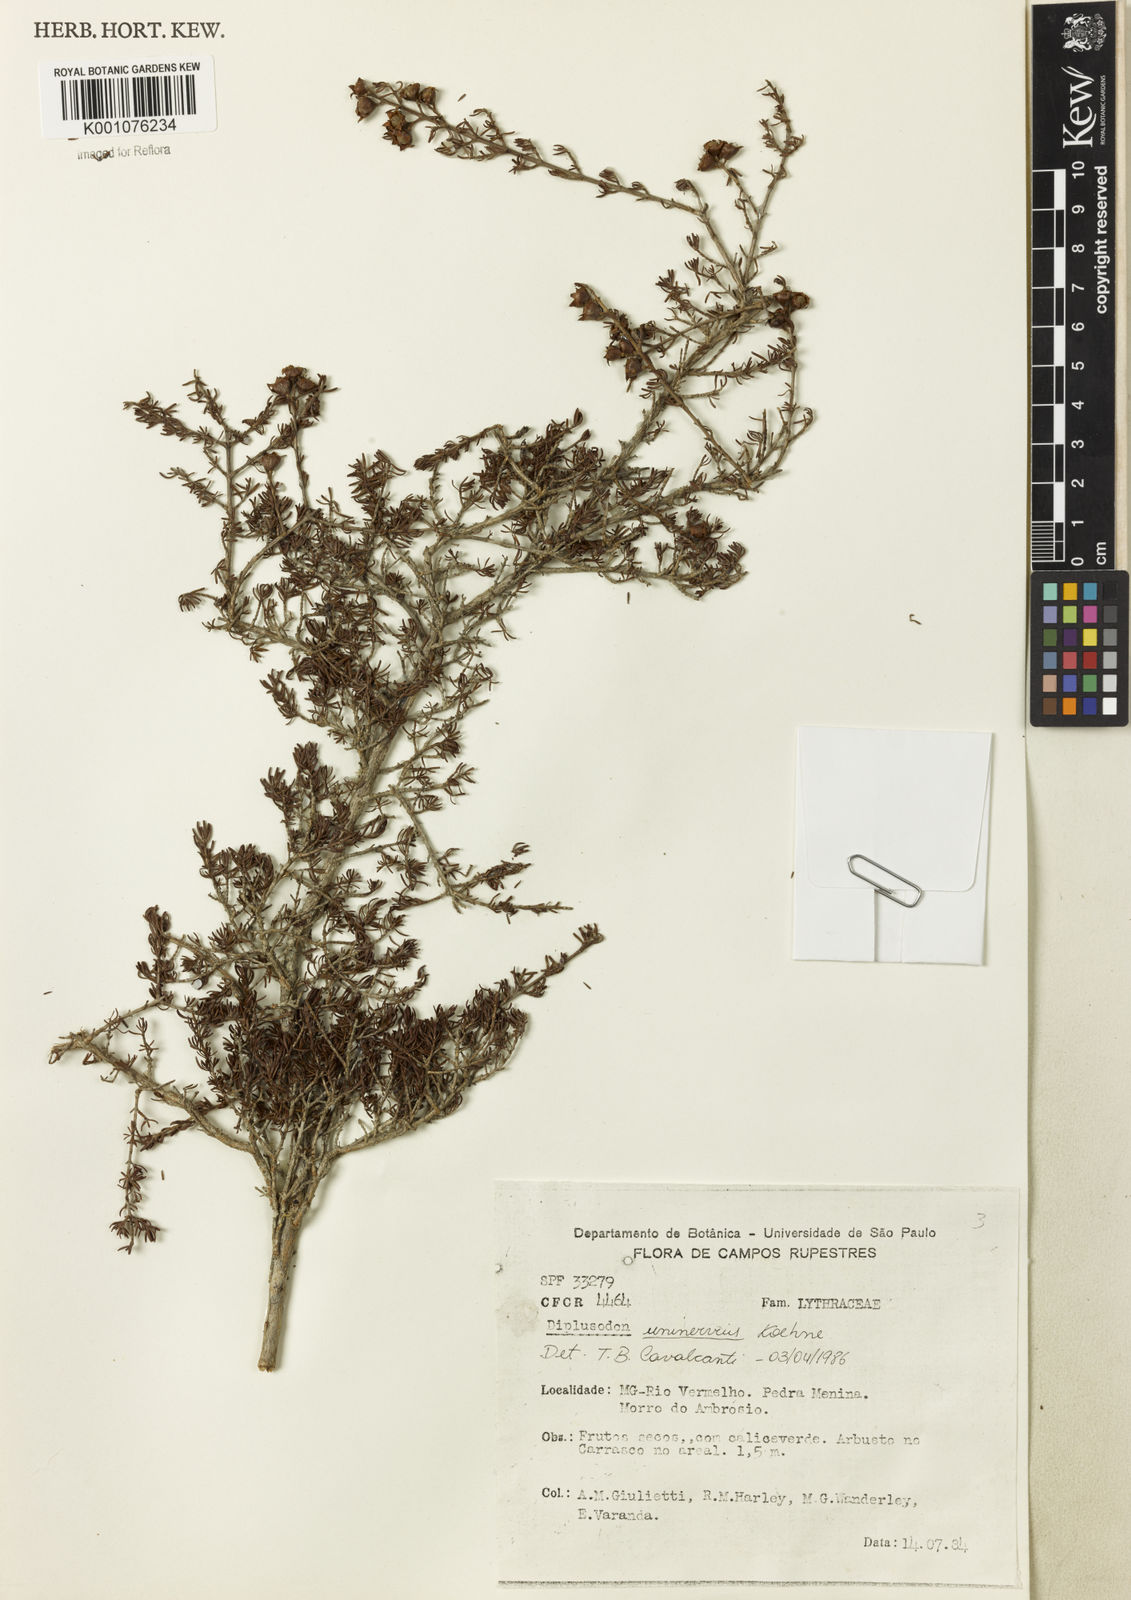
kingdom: Plantae
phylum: Tracheophyta
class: Magnoliopsida
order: Myrtales
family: Lythraceae
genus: Diplusodon
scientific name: Diplusodon uninervius
